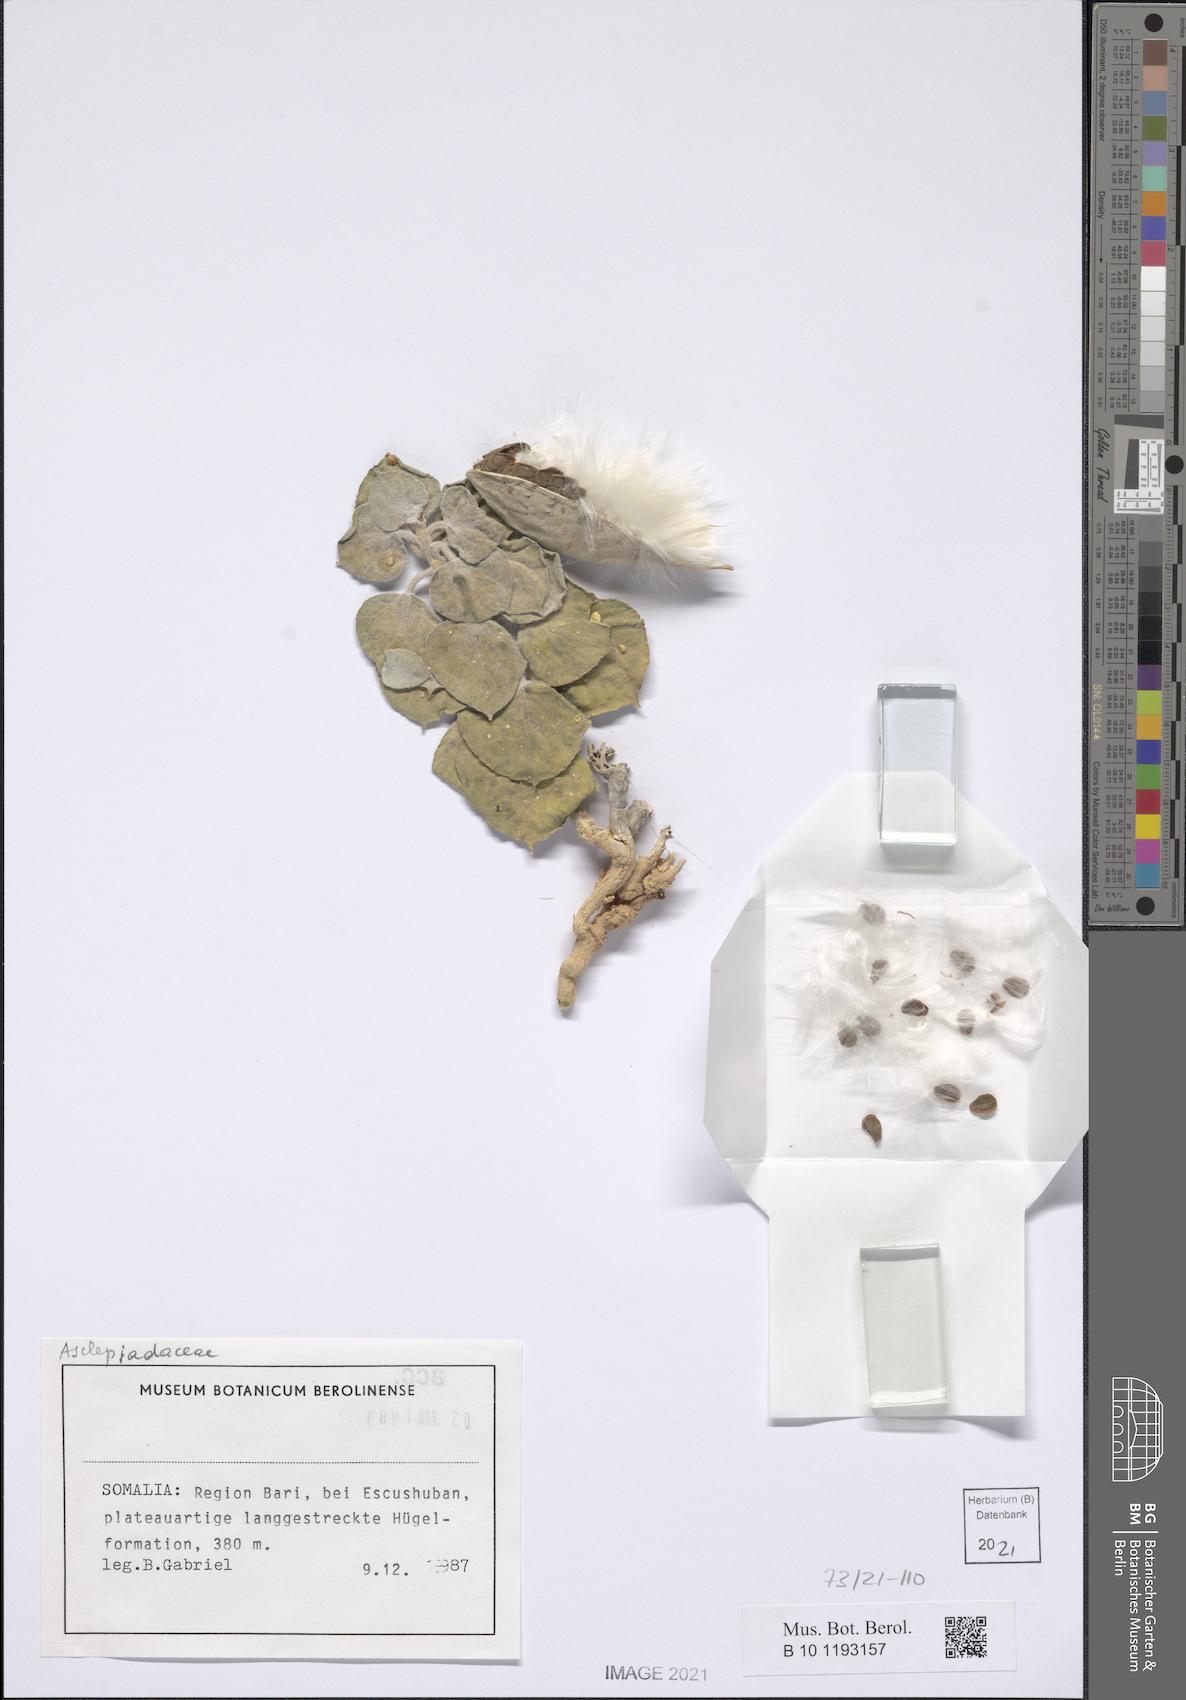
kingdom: Plantae
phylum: Tracheophyta
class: Magnoliopsida
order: Gentianales
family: Apocynaceae
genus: Cynanchum
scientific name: Cynanchum radians
